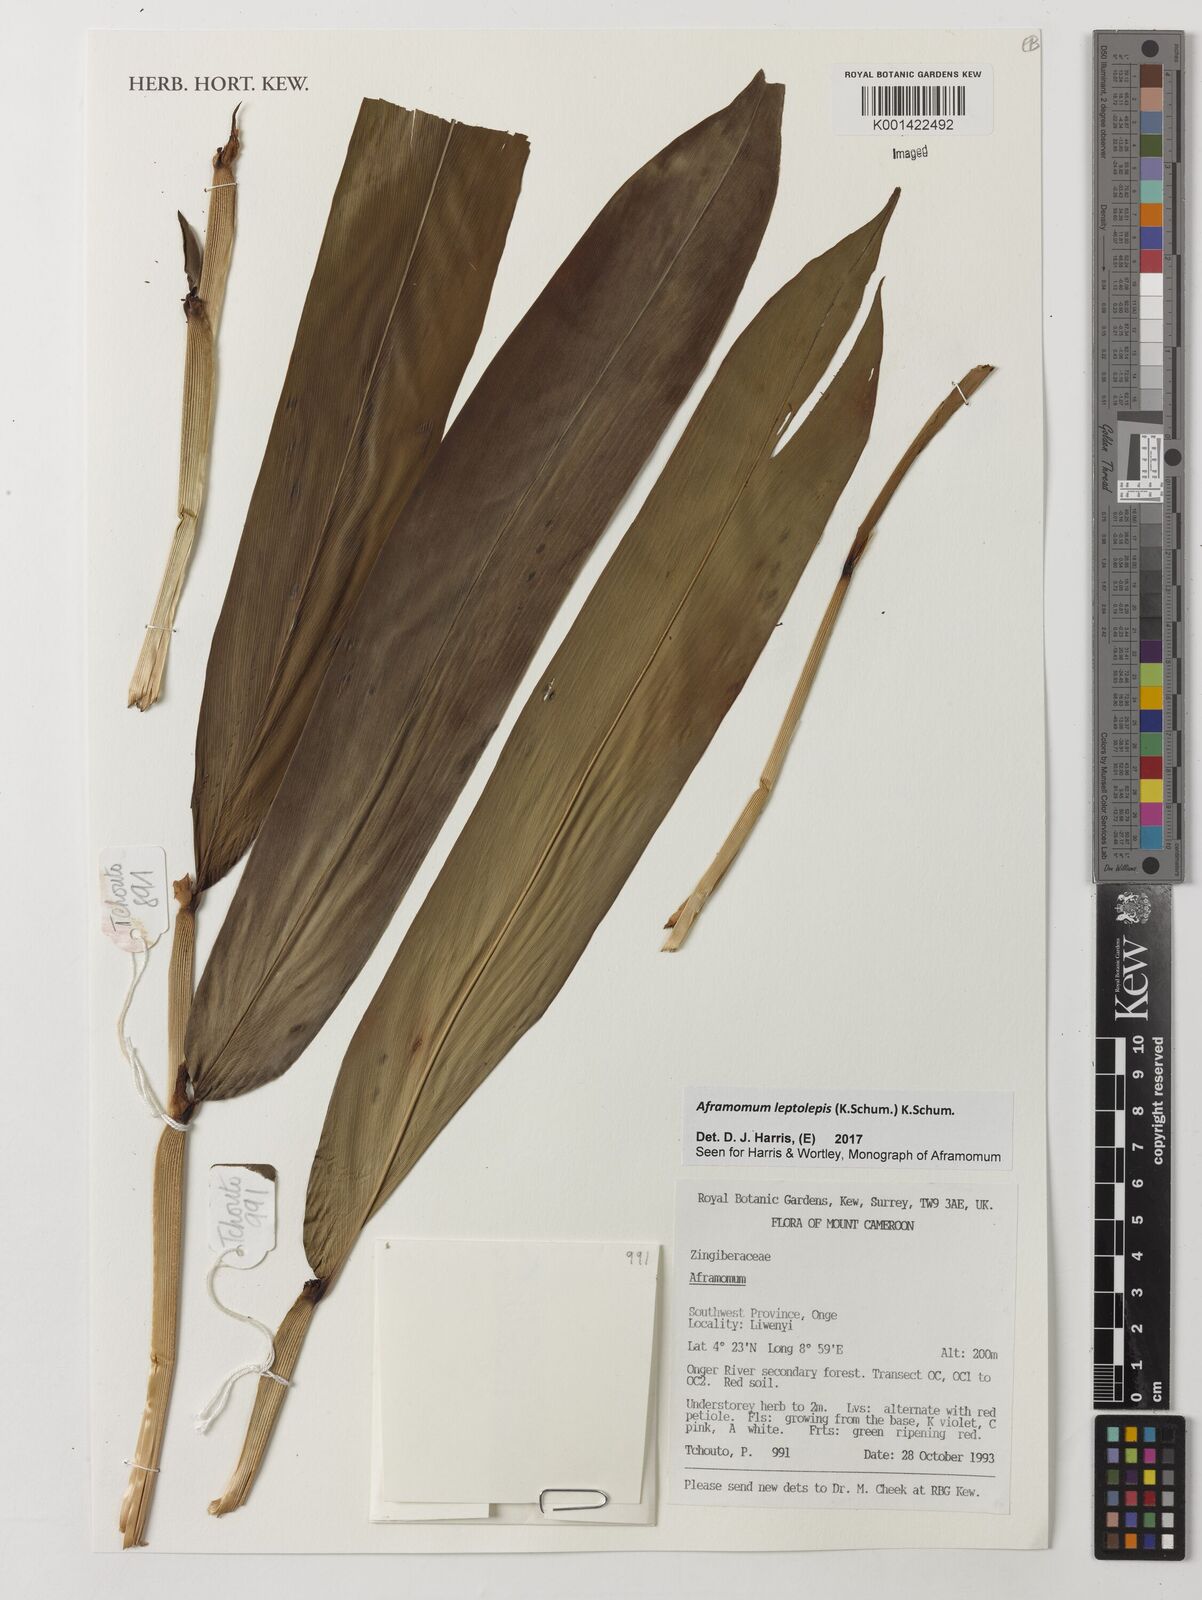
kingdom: Plantae
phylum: Tracheophyta
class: Liliopsida
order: Zingiberales
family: Zingiberaceae
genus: Aframomum
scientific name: Aframomum leptolepis
